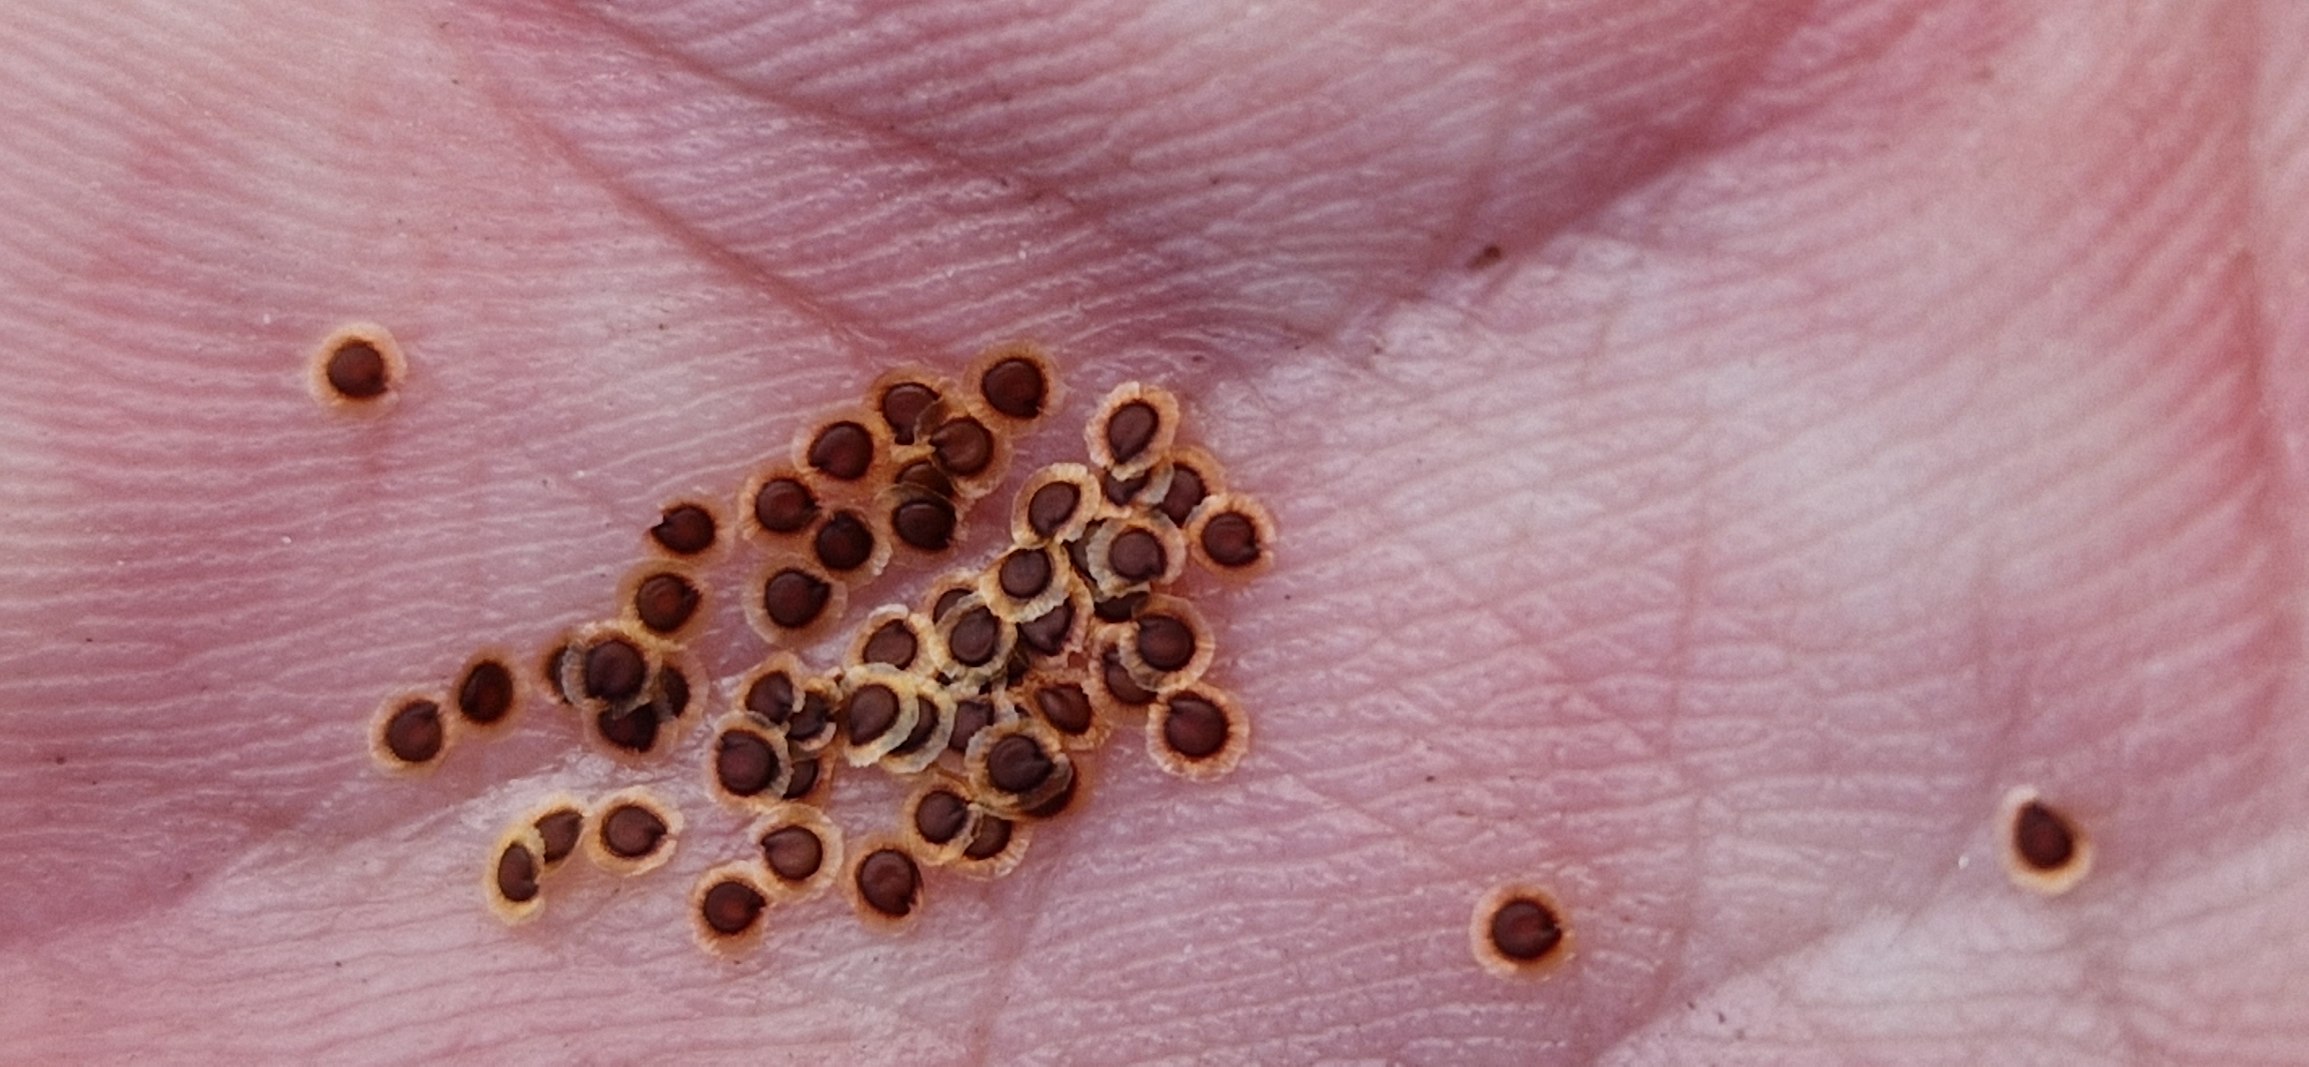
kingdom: Plantae
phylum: Tracheophyta
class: Magnoliopsida
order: Caryophyllales
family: Caryophyllaceae
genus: Spergularia
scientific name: Spergularia media
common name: Vingefrøet hindeknæ
